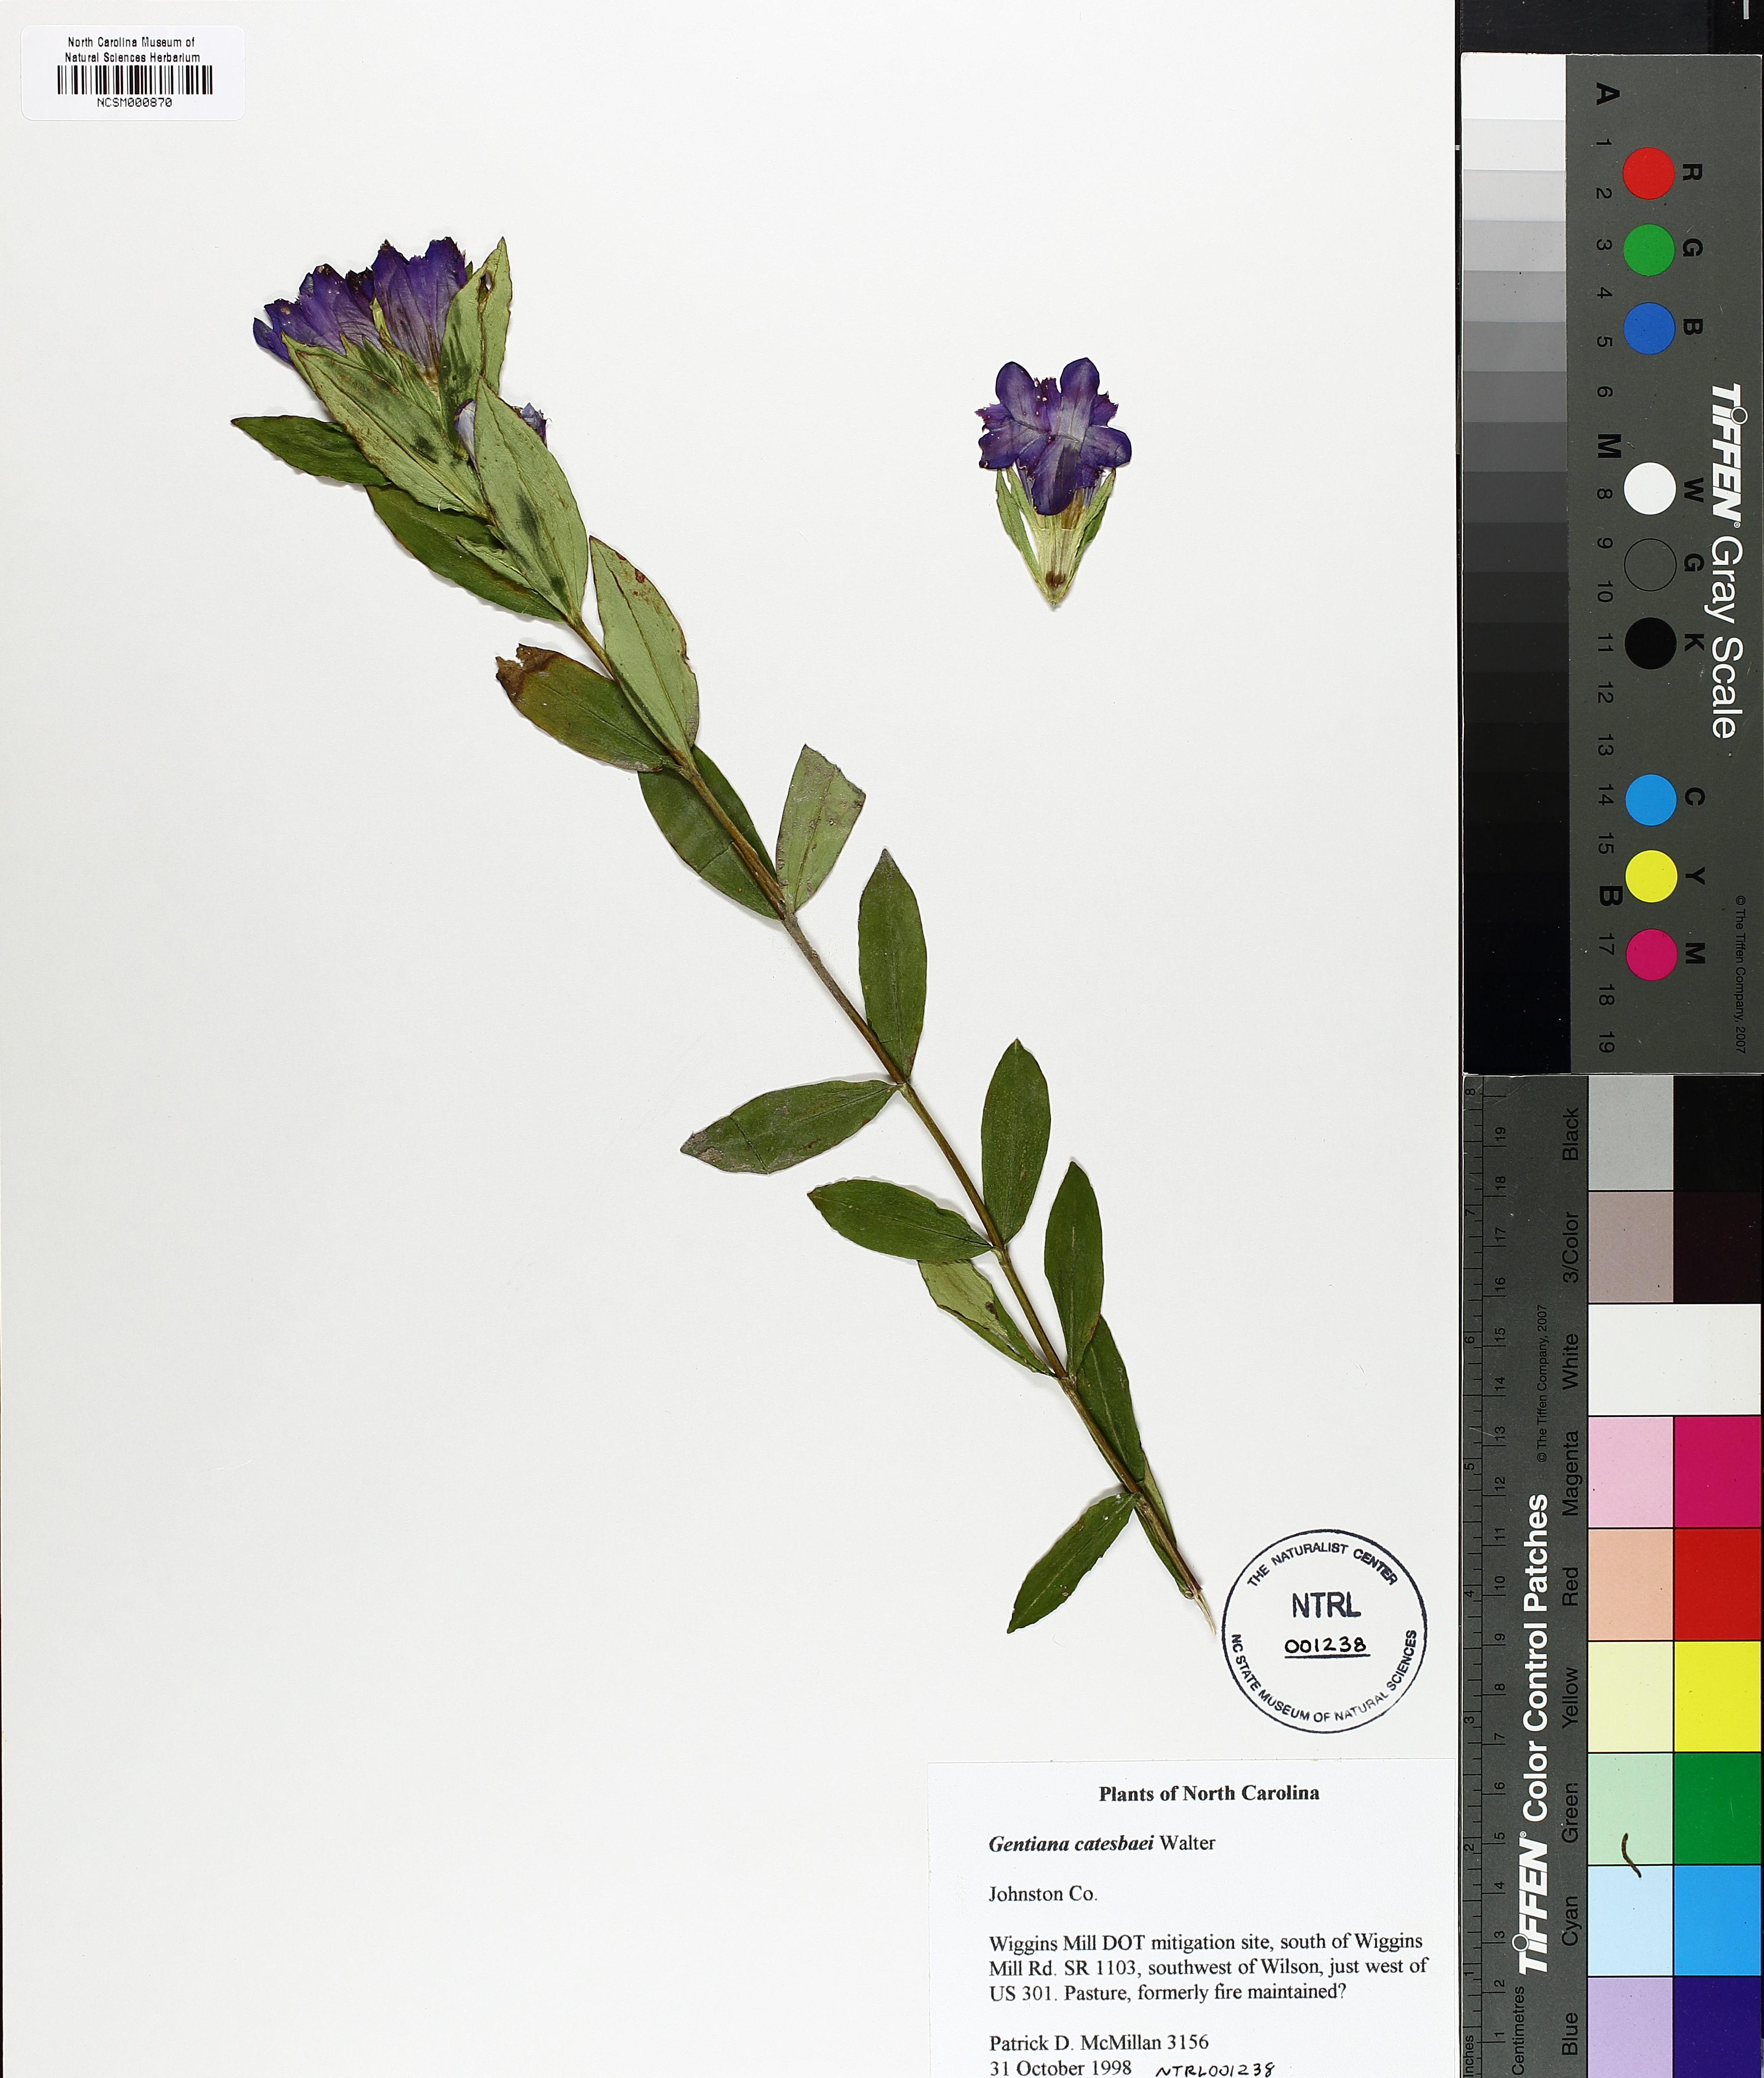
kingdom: Plantae
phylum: Tracheophyta
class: Magnoliopsida
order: Gentianales
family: Gentianaceae
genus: Gentiana
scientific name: Gentiana catesbaei
